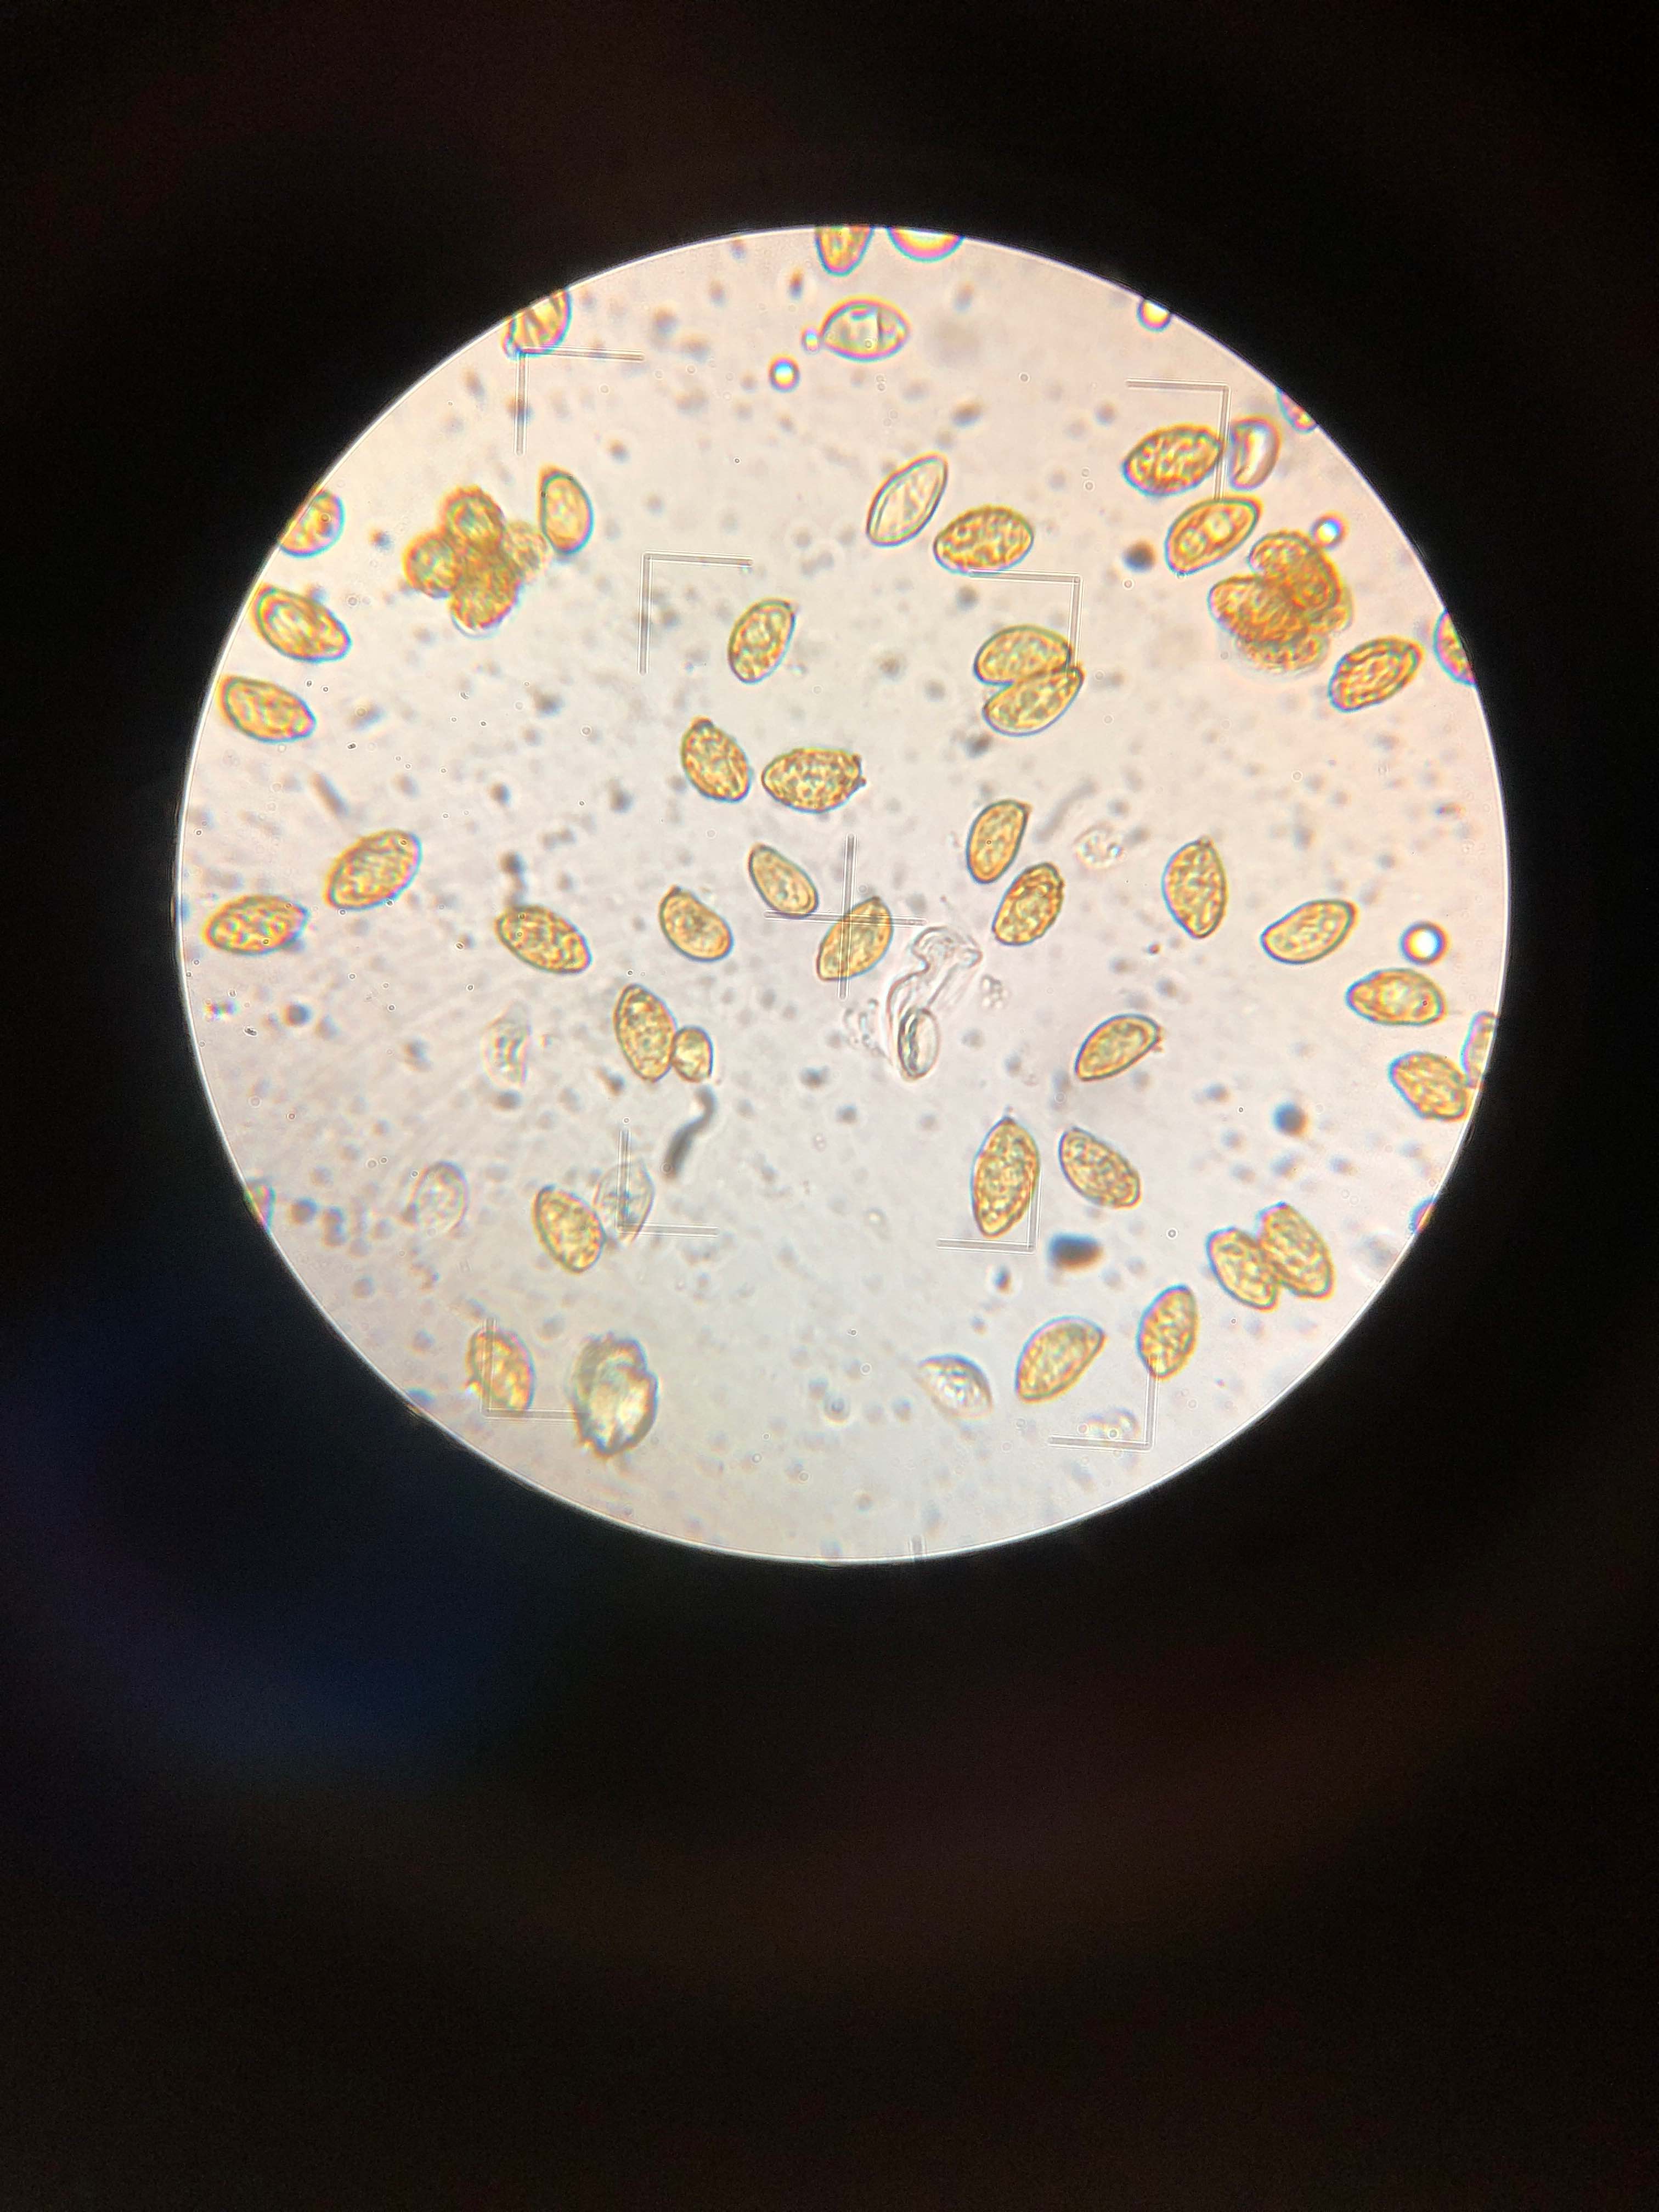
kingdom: Fungi
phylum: Basidiomycota
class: Agaricomycetes
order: Agaricales
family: Hymenogastraceae
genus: Gymnopilus
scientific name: Gymnopilus spectabilis
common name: fibret flammehat
